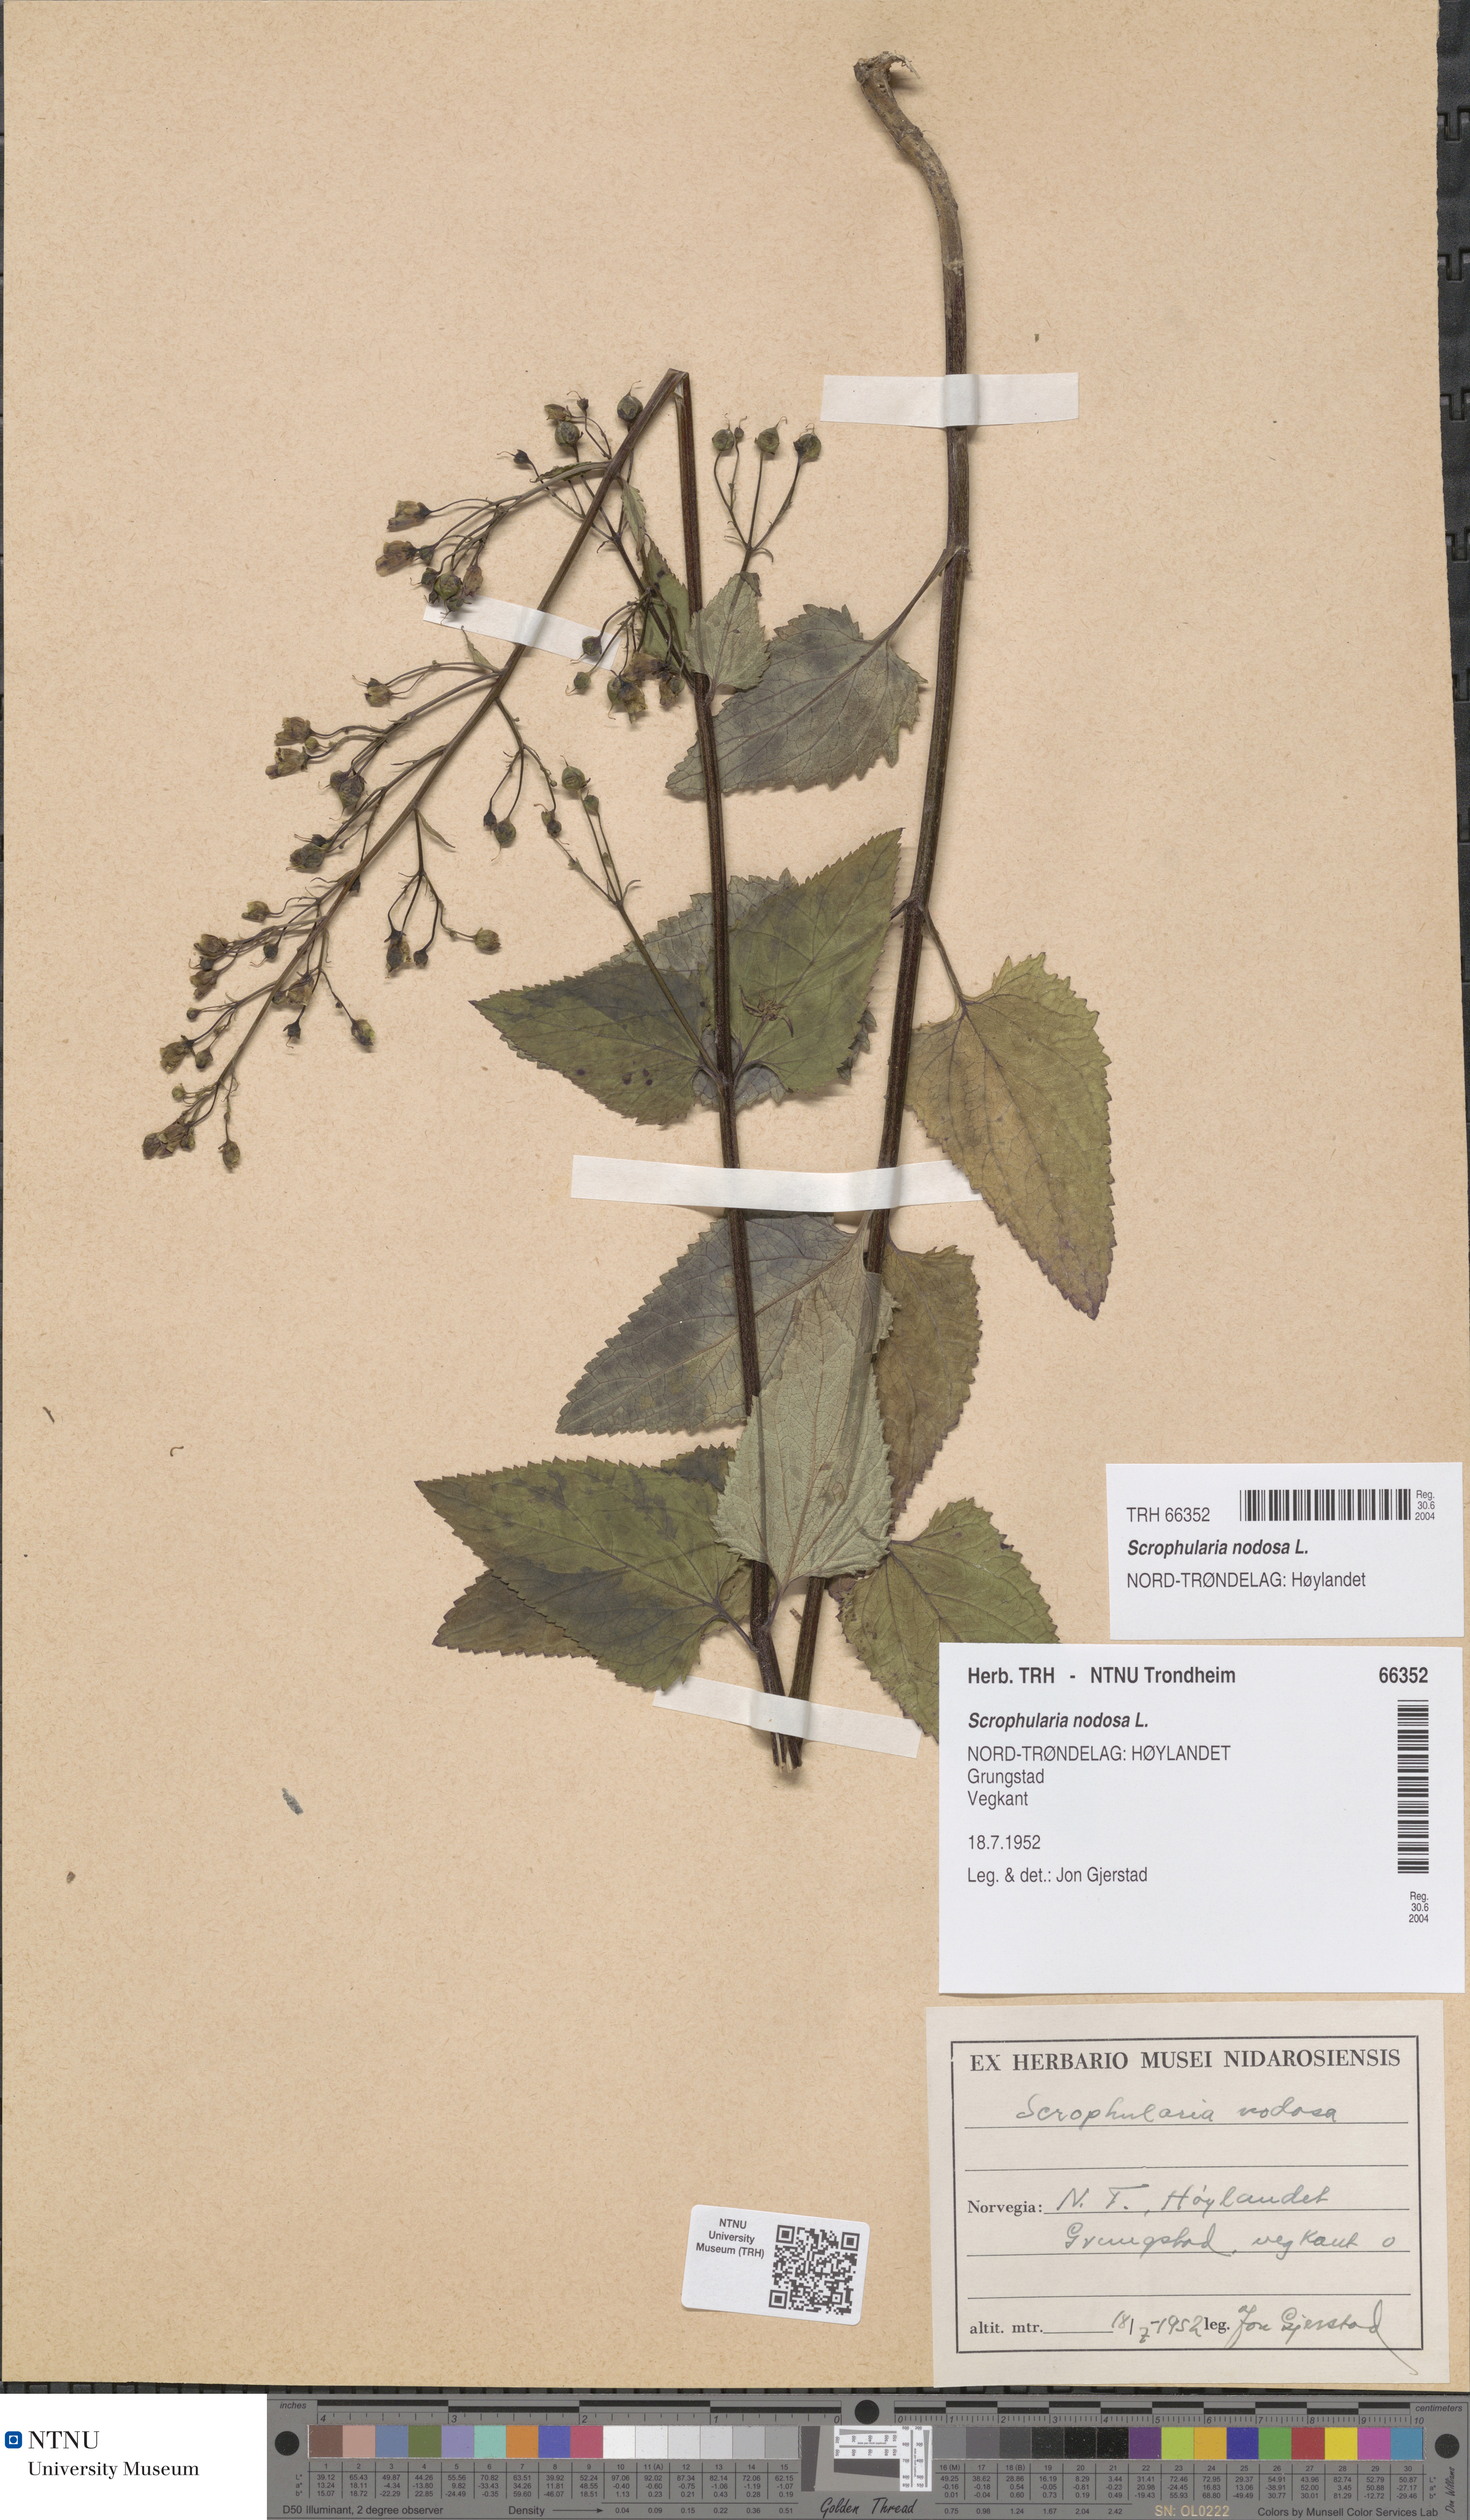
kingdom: Plantae
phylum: Tracheophyta
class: Magnoliopsida
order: Lamiales
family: Scrophulariaceae
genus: Scrophularia
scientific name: Scrophularia nodosa
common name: Common figwort
